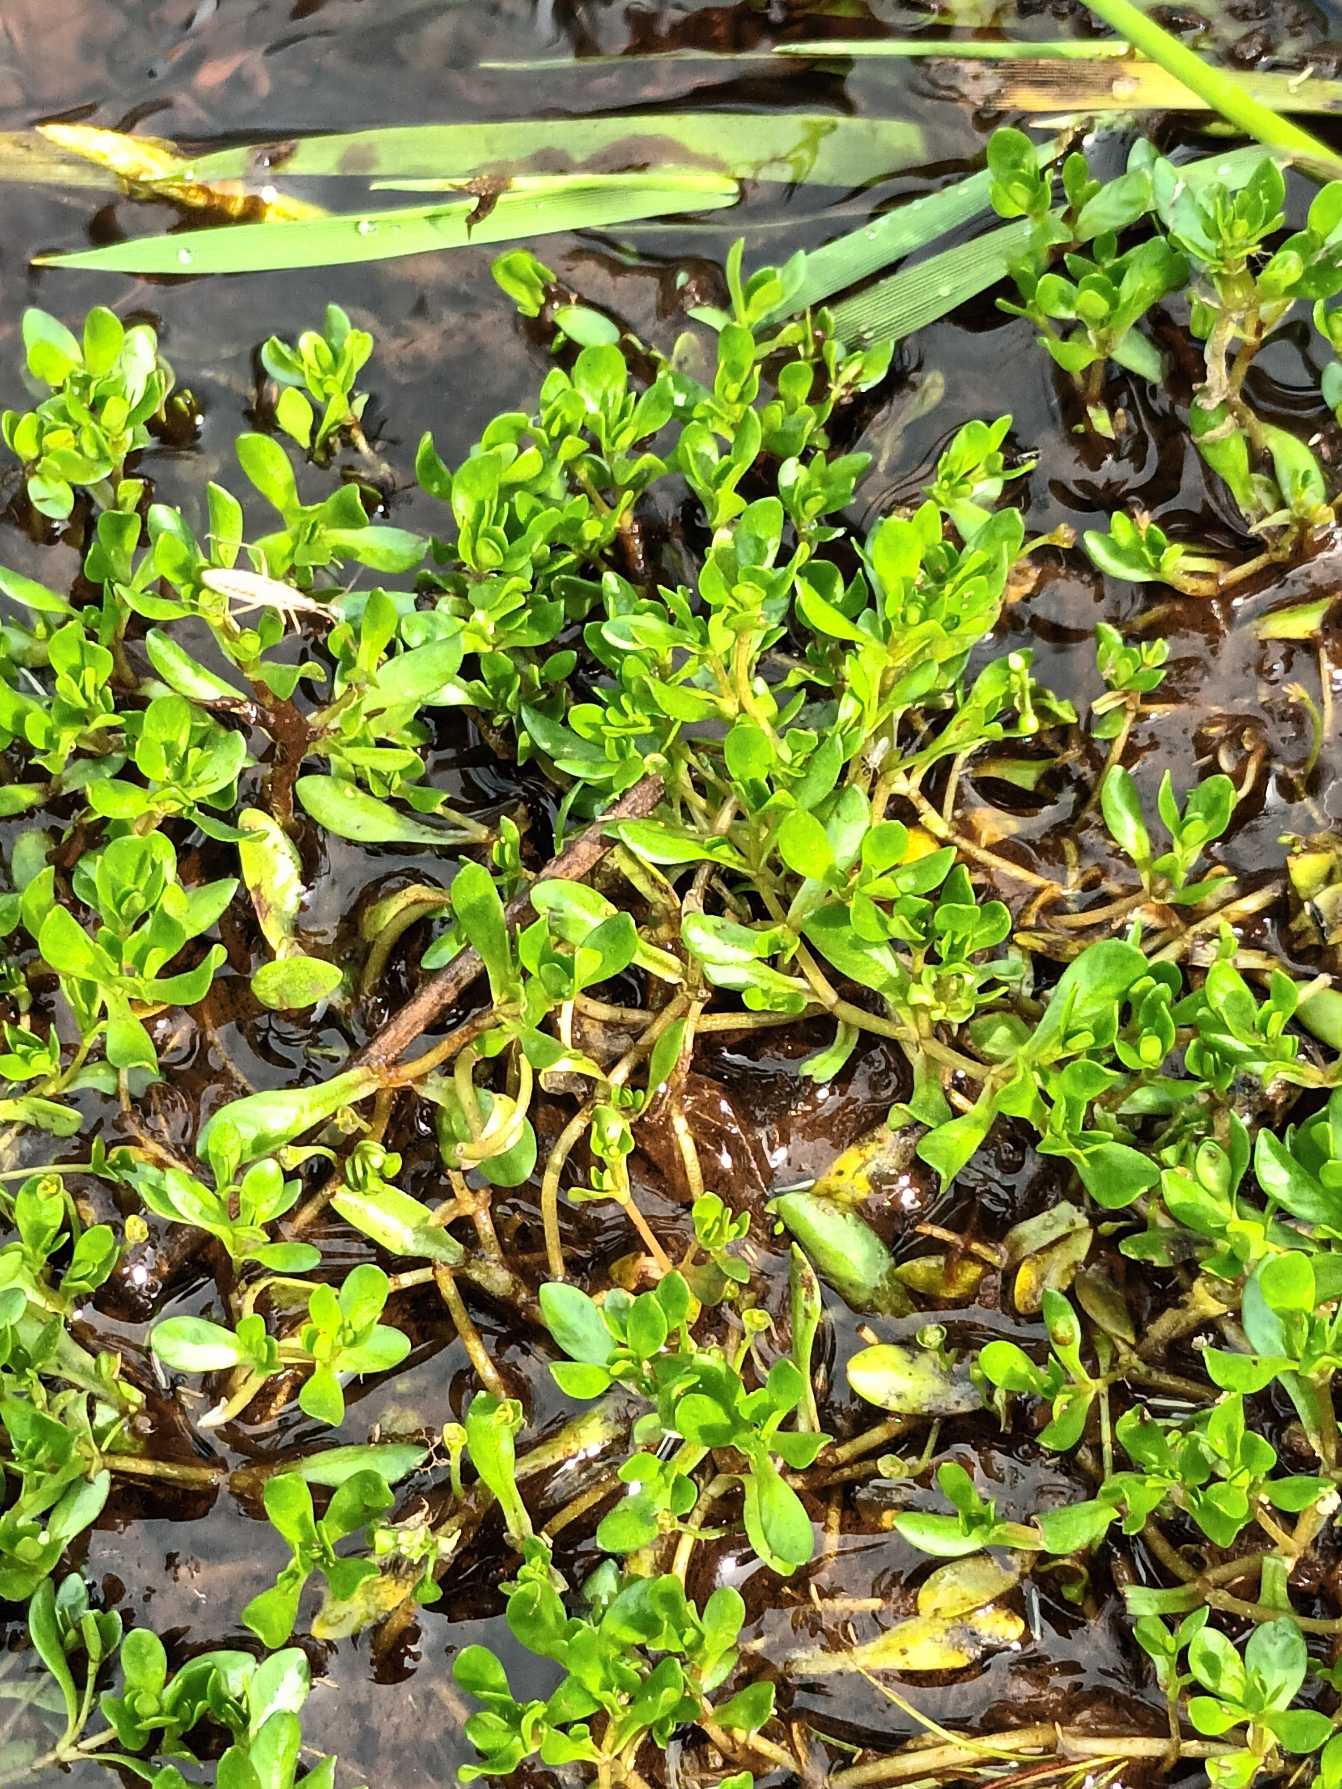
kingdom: Plantae
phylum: Tracheophyta
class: Magnoliopsida
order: Caryophyllales
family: Montiaceae
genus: Montia
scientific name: Montia fontana
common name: Stor vandarve
